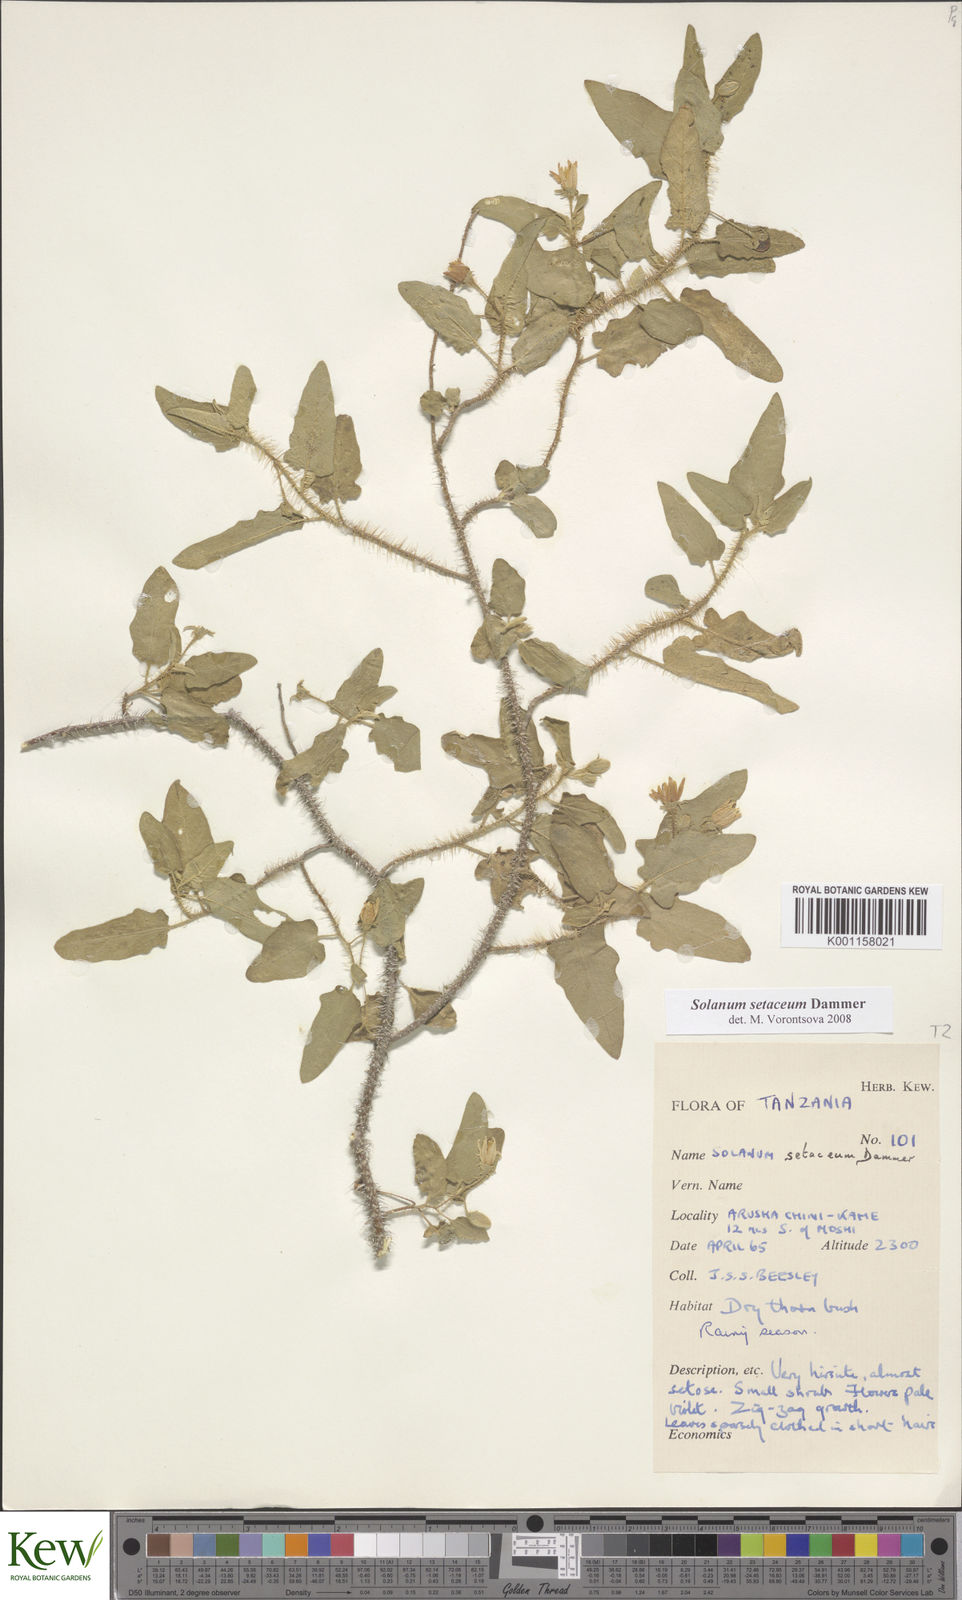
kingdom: Plantae
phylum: Tracheophyta
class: Magnoliopsida
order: Solanales
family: Solanaceae
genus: Solanum
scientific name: Solanum setaceum
